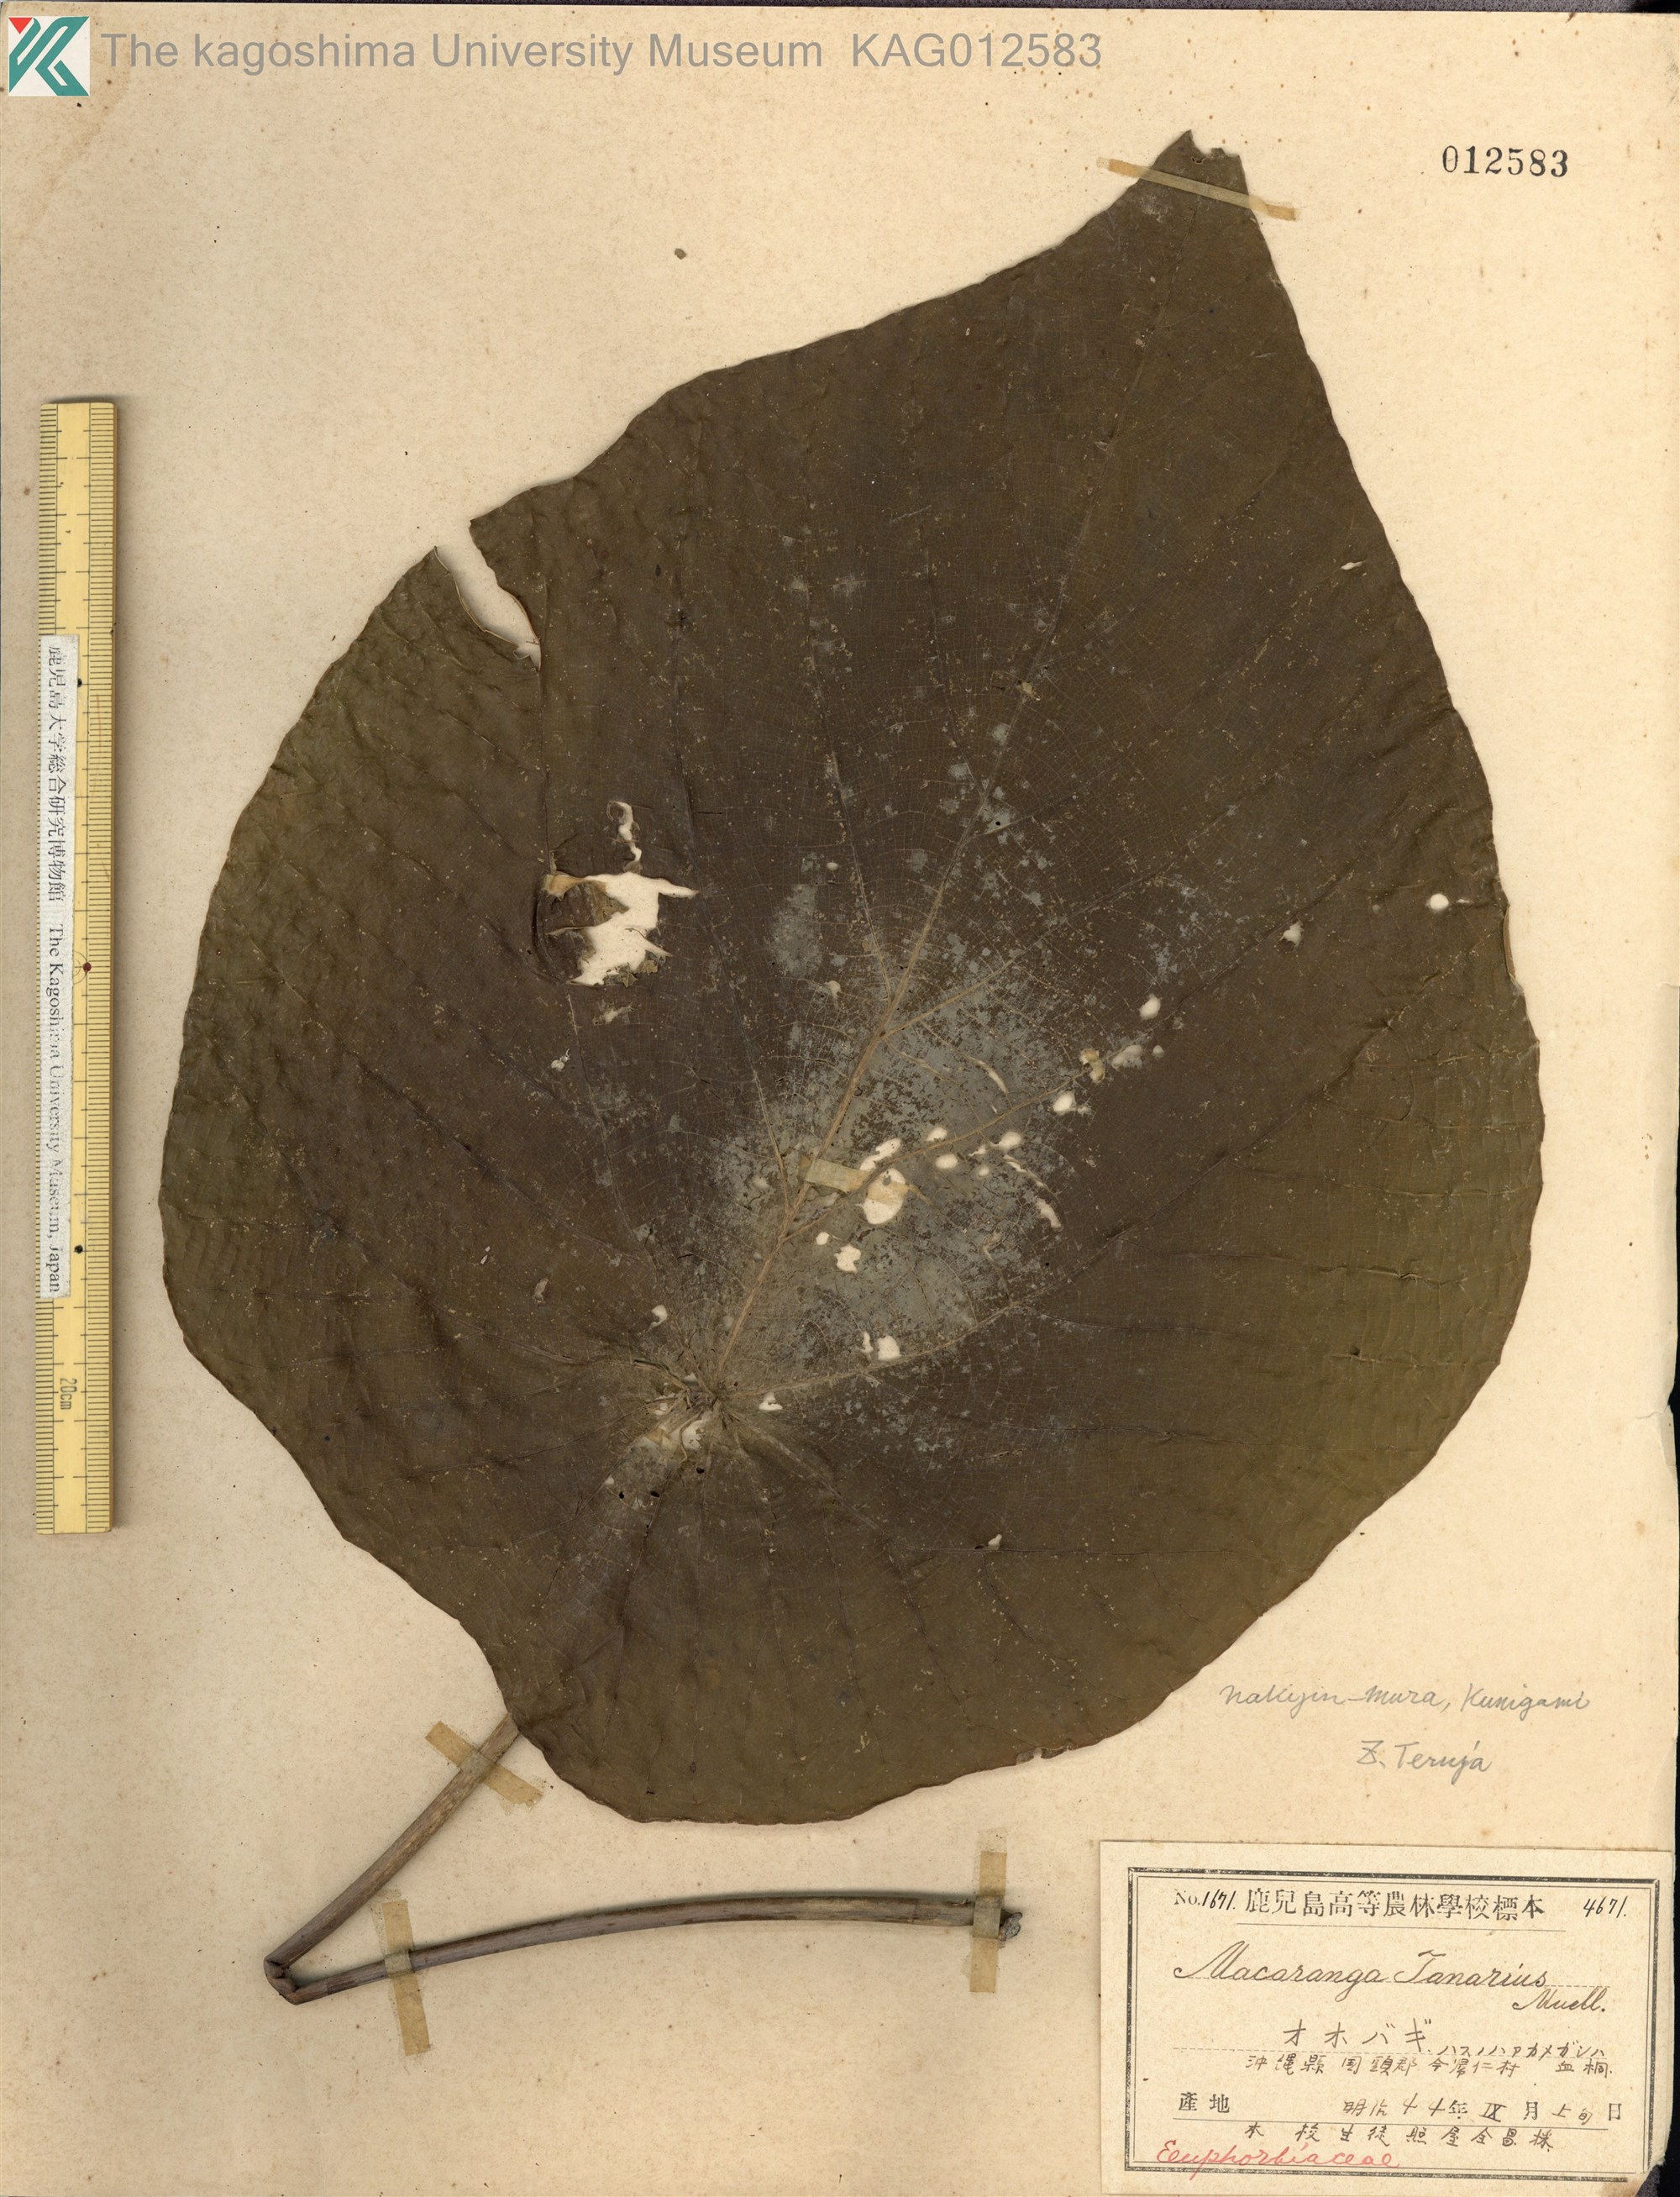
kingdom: Plantae
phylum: Tracheophyta
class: Magnoliopsida
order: Malpighiales
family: Euphorbiaceae
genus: Macaranga
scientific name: Macaranga tanarius
